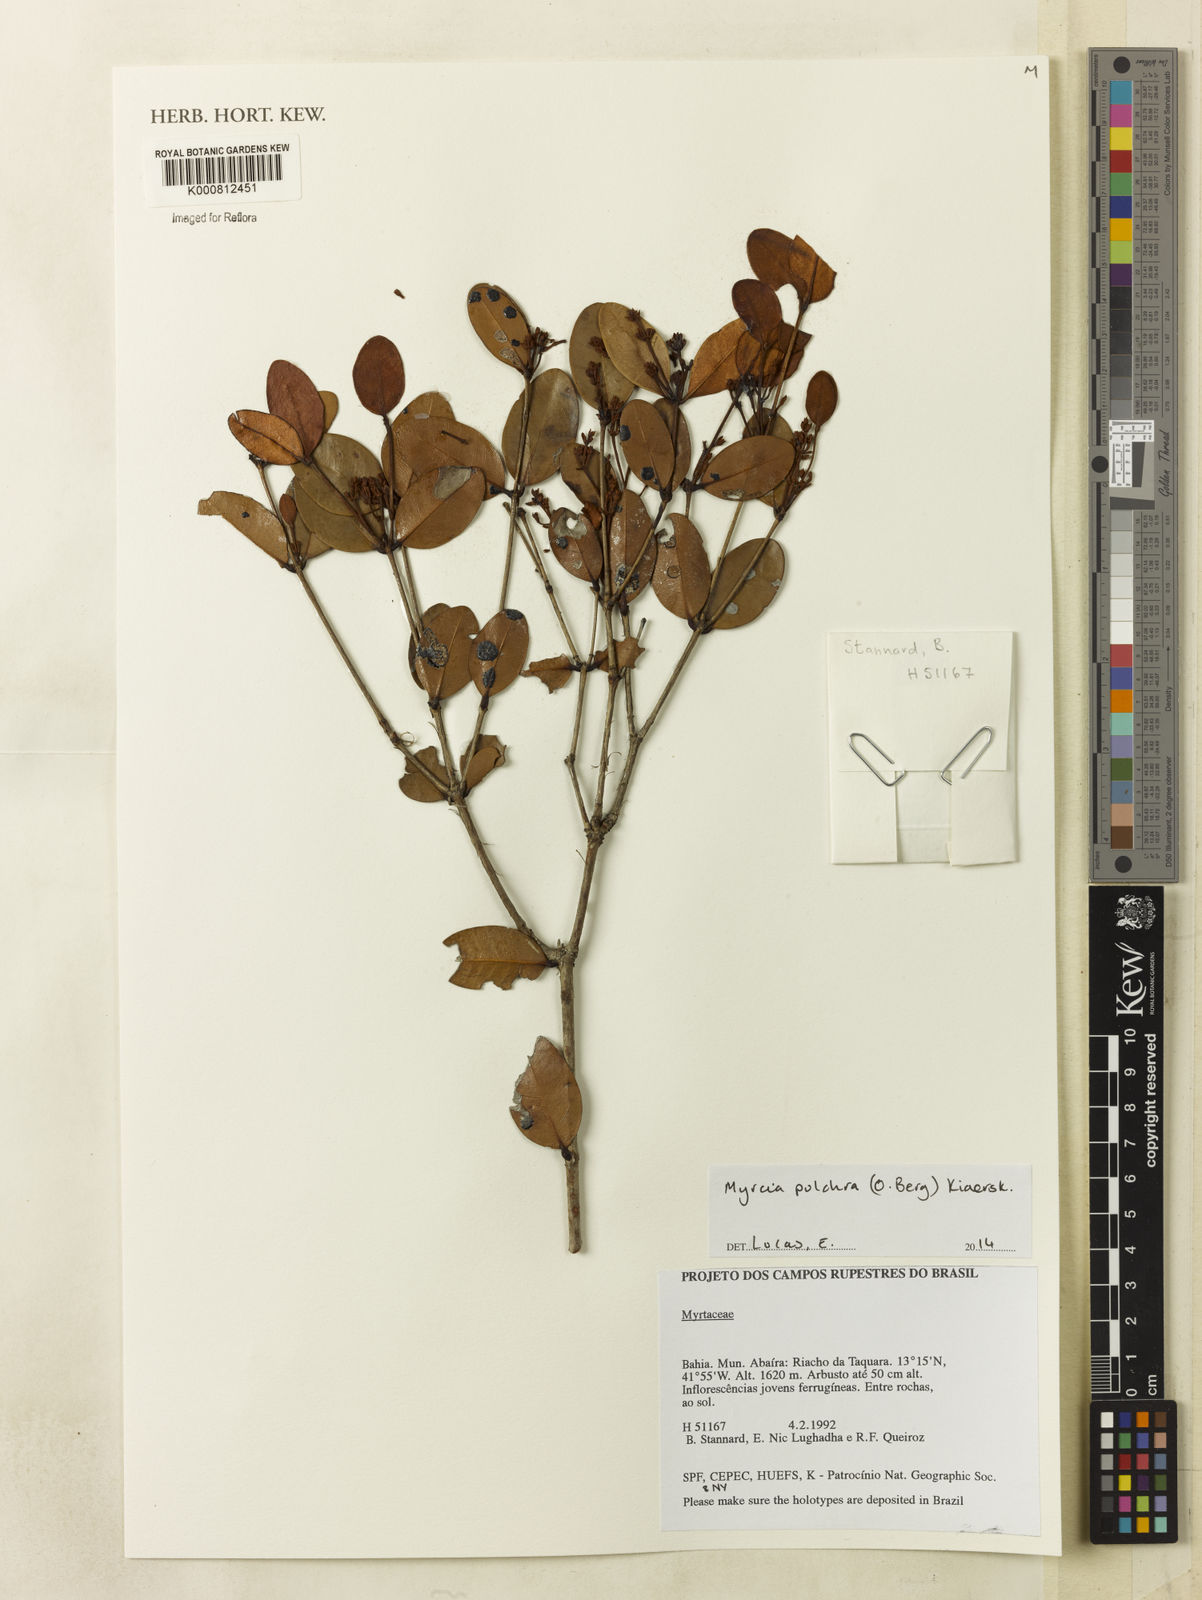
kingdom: Plantae
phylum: Tracheophyta
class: Magnoliopsida
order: Myrtales
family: Myrtaceae
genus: Myrcia
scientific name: Myrcia pulchra
